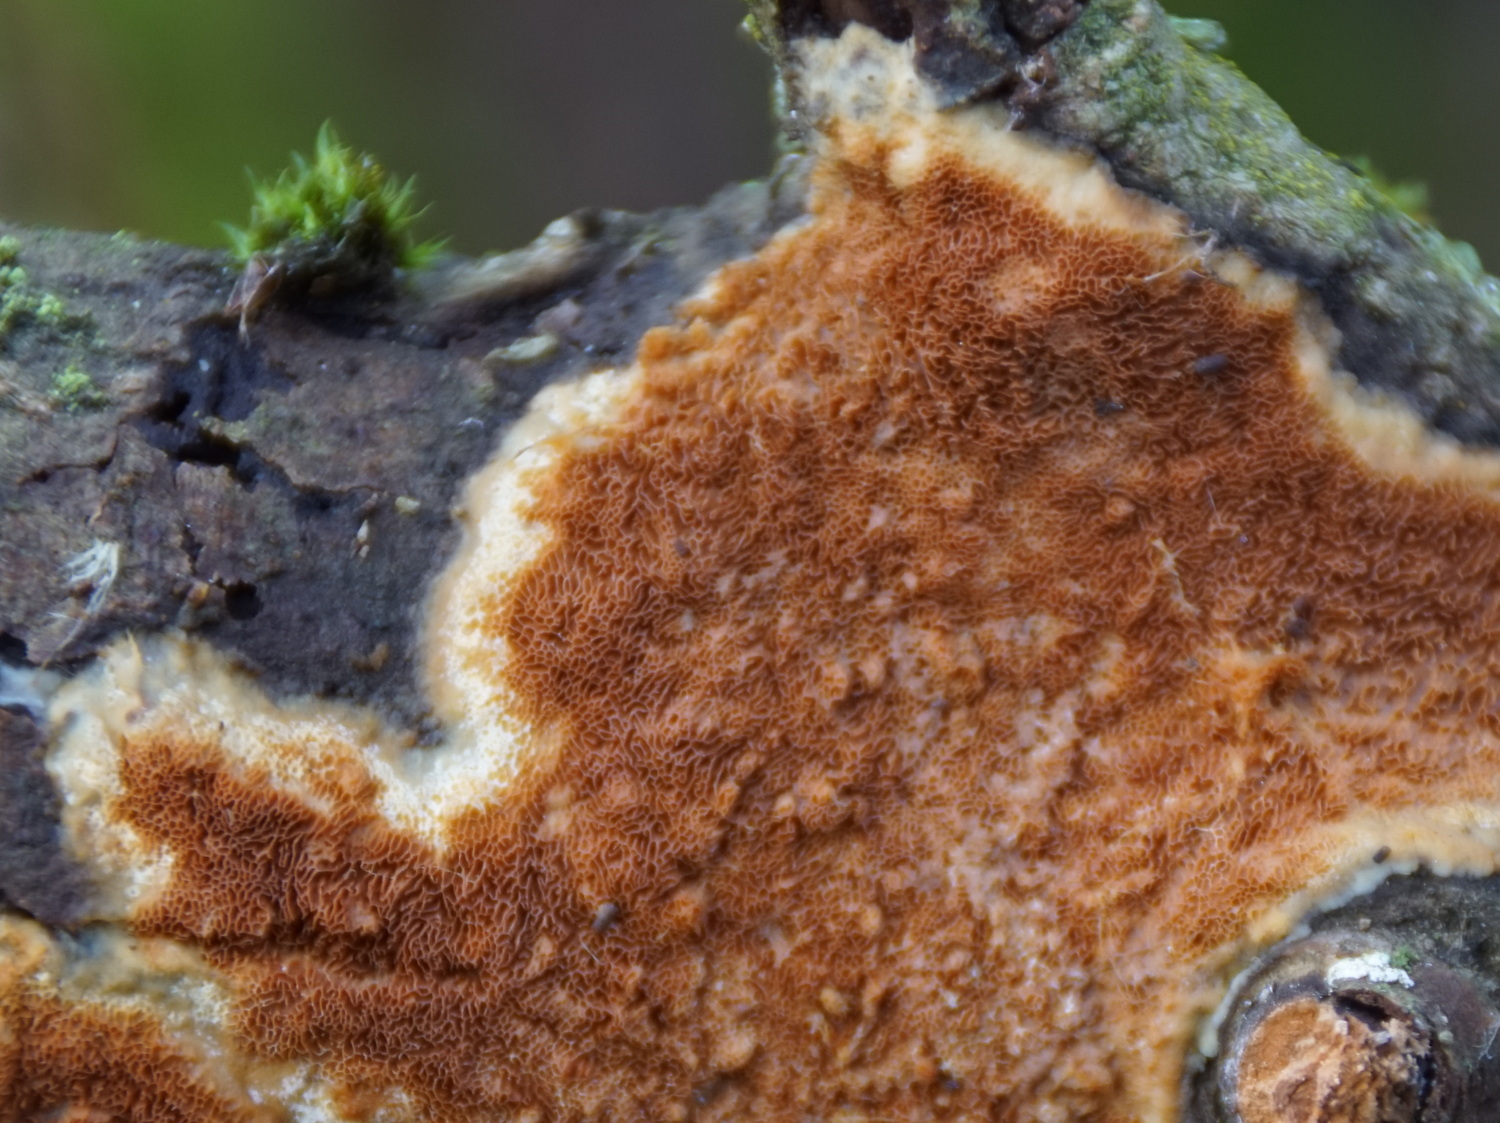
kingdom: Fungi
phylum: Basidiomycota
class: Agaricomycetes
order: Polyporales
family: Irpicaceae
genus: Resiniporus
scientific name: Resiniporus resinascens
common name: trist pastelporesvamp
